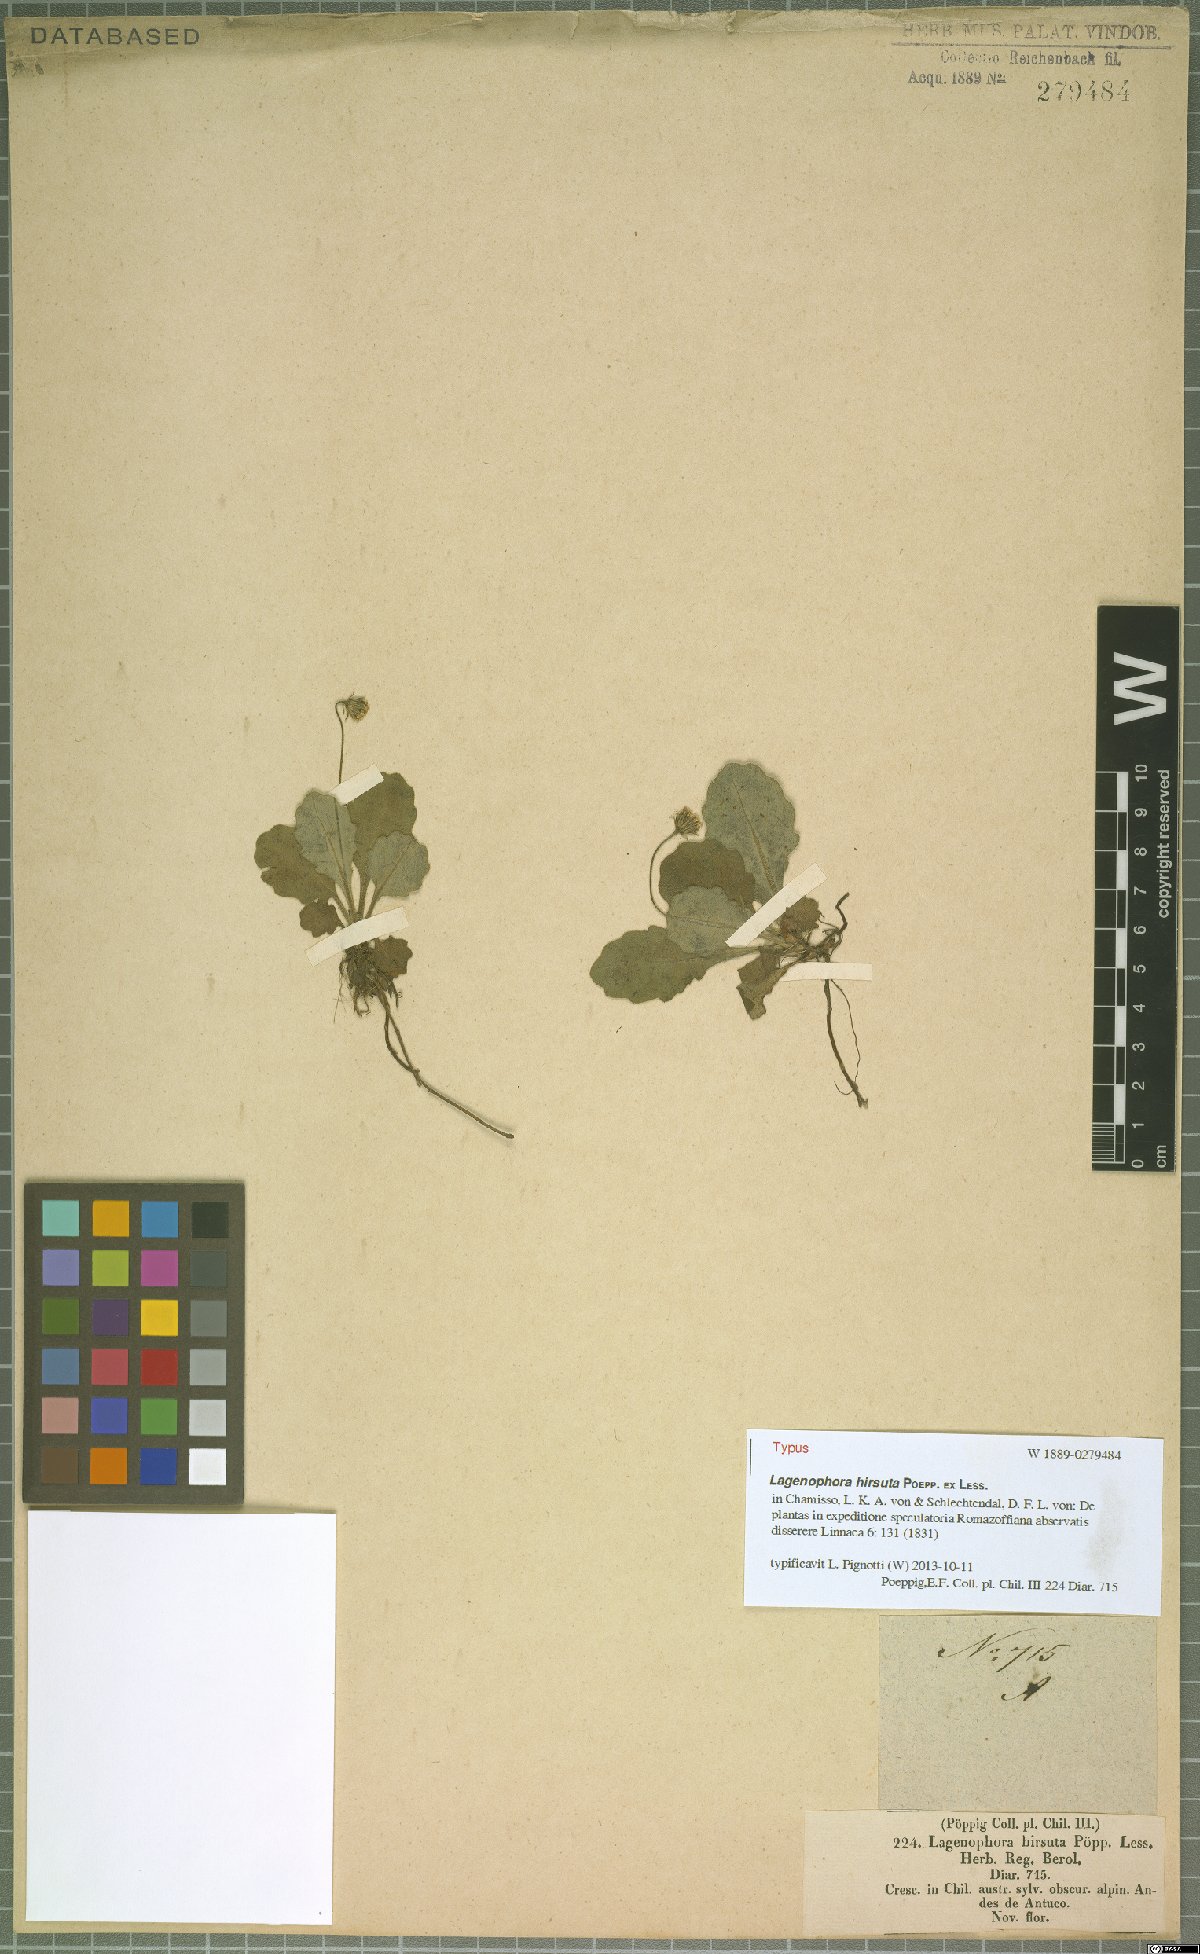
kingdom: Plantae
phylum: Tracheophyta
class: Magnoliopsida
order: Asterales
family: Asteraceae
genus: Lagenophora
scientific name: Lagenophora hirsuta
